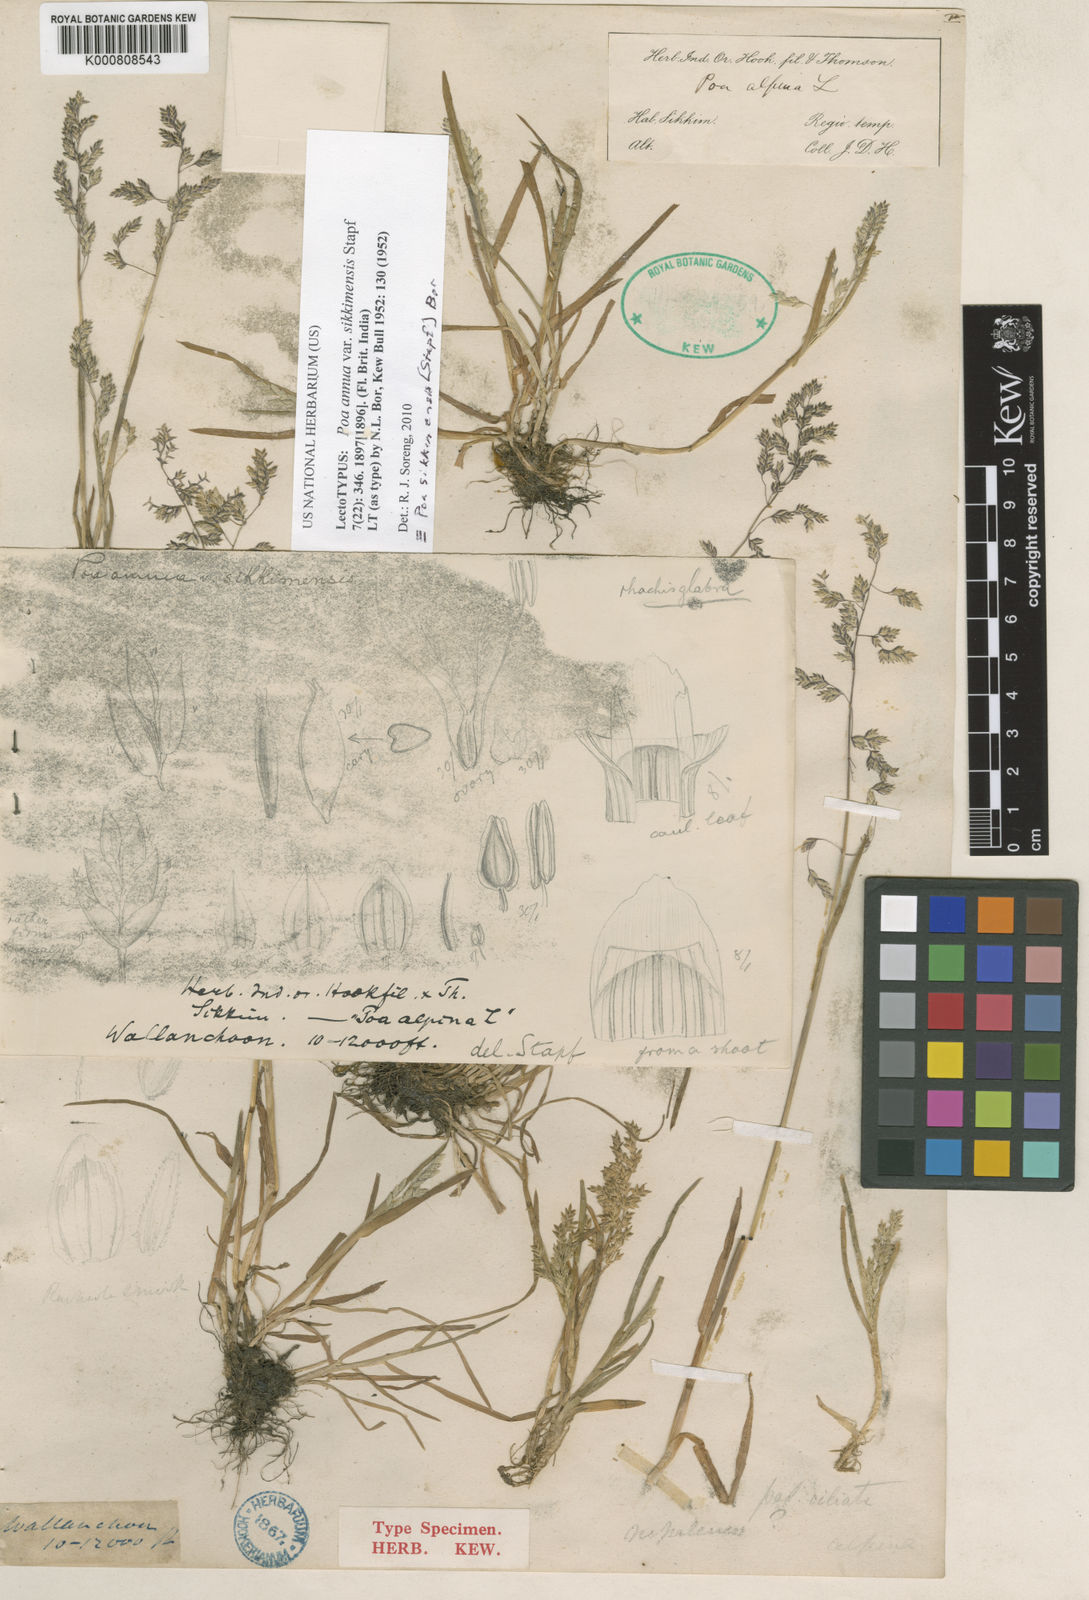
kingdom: Plantae
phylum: Tracheophyta
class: Liliopsida
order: Poales
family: Poaceae
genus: Poa
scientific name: Poa sikkimensis
